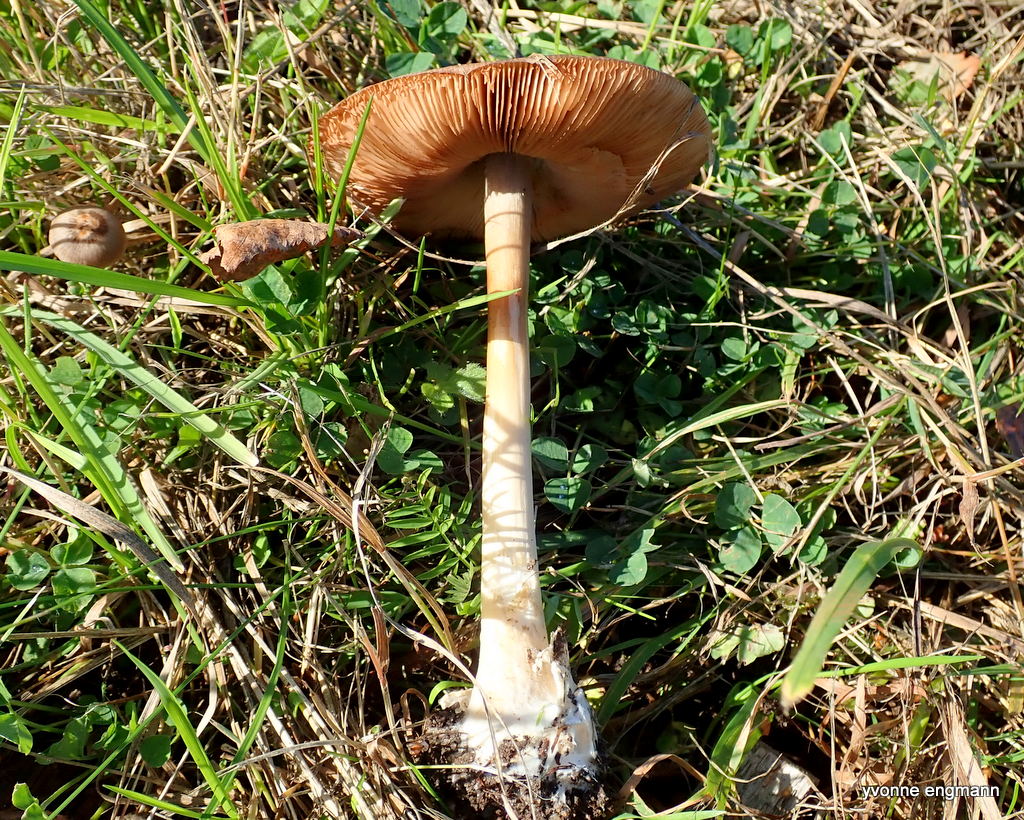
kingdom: Fungi
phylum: Basidiomycota
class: Agaricomycetes
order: Agaricales
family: Pluteaceae
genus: Volvopluteus
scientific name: Volvopluteus gloiocephalus
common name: høj posesvamp
